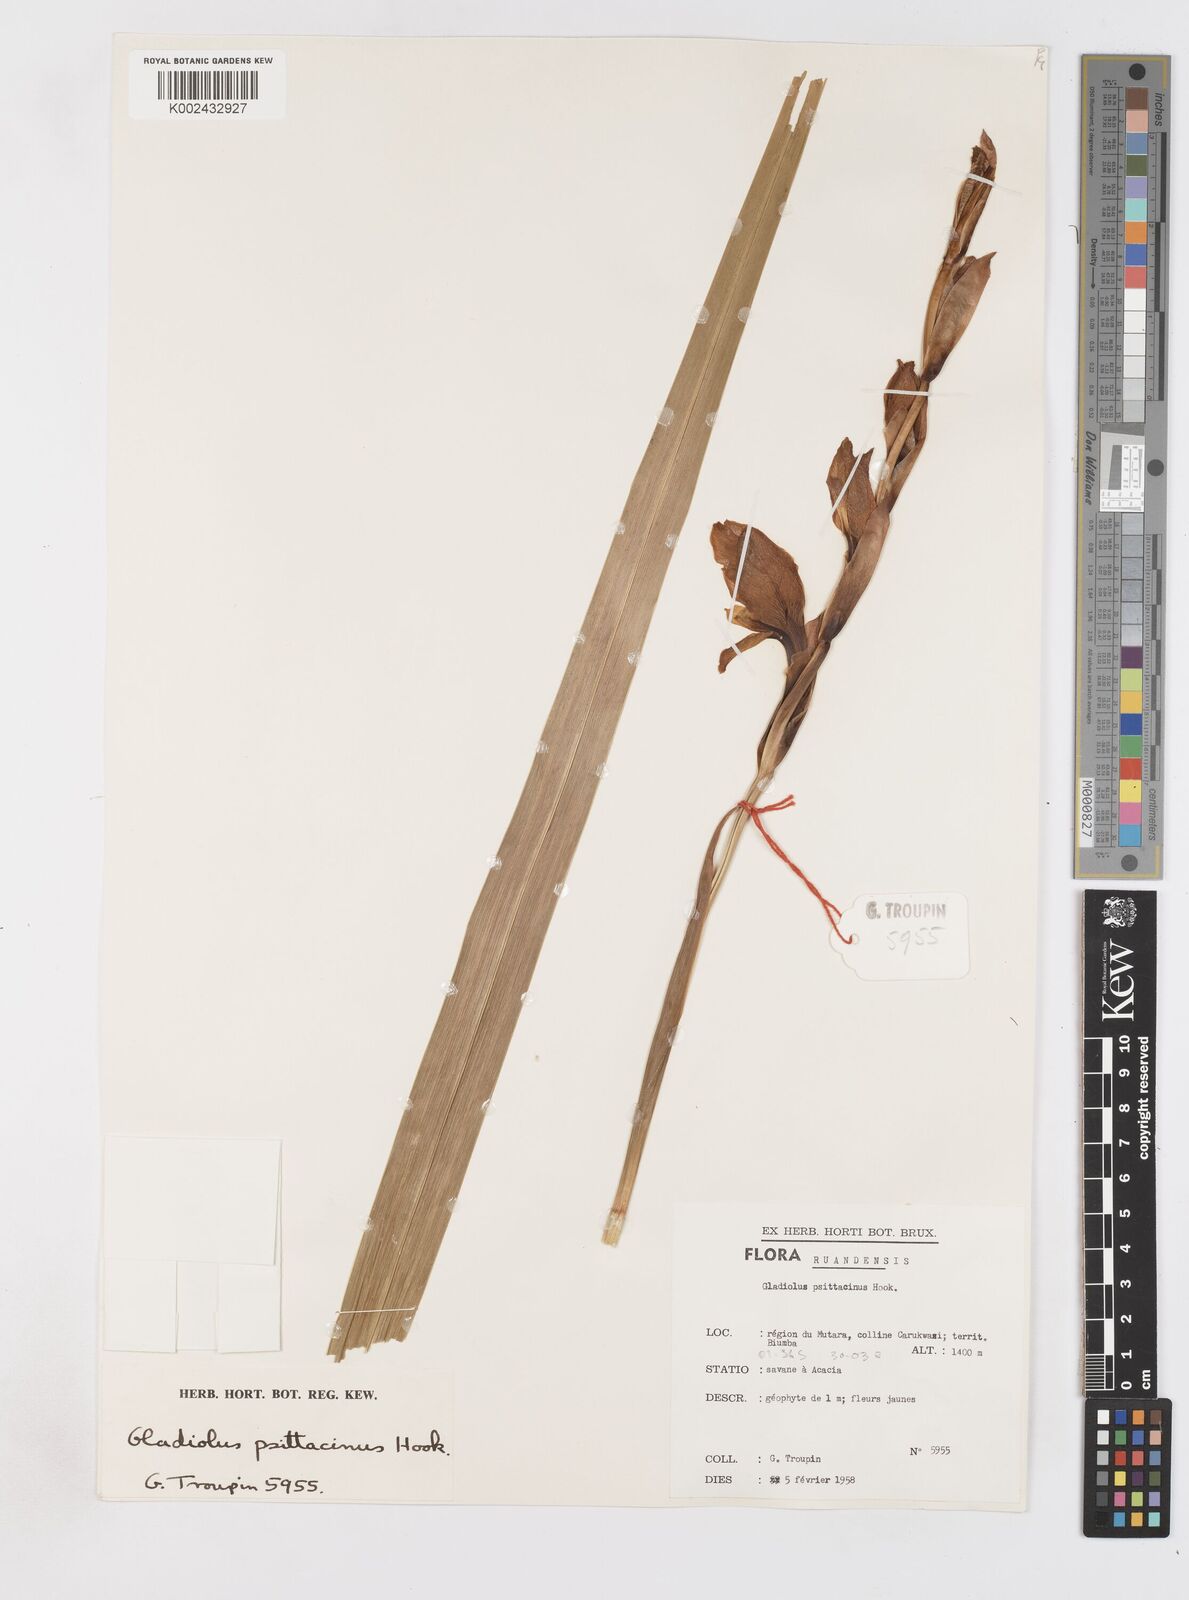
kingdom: Plantae
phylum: Tracheophyta
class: Liliopsida
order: Asparagales
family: Iridaceae
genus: Gladiolus
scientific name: Gladiolus dalenii
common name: Cornflag
